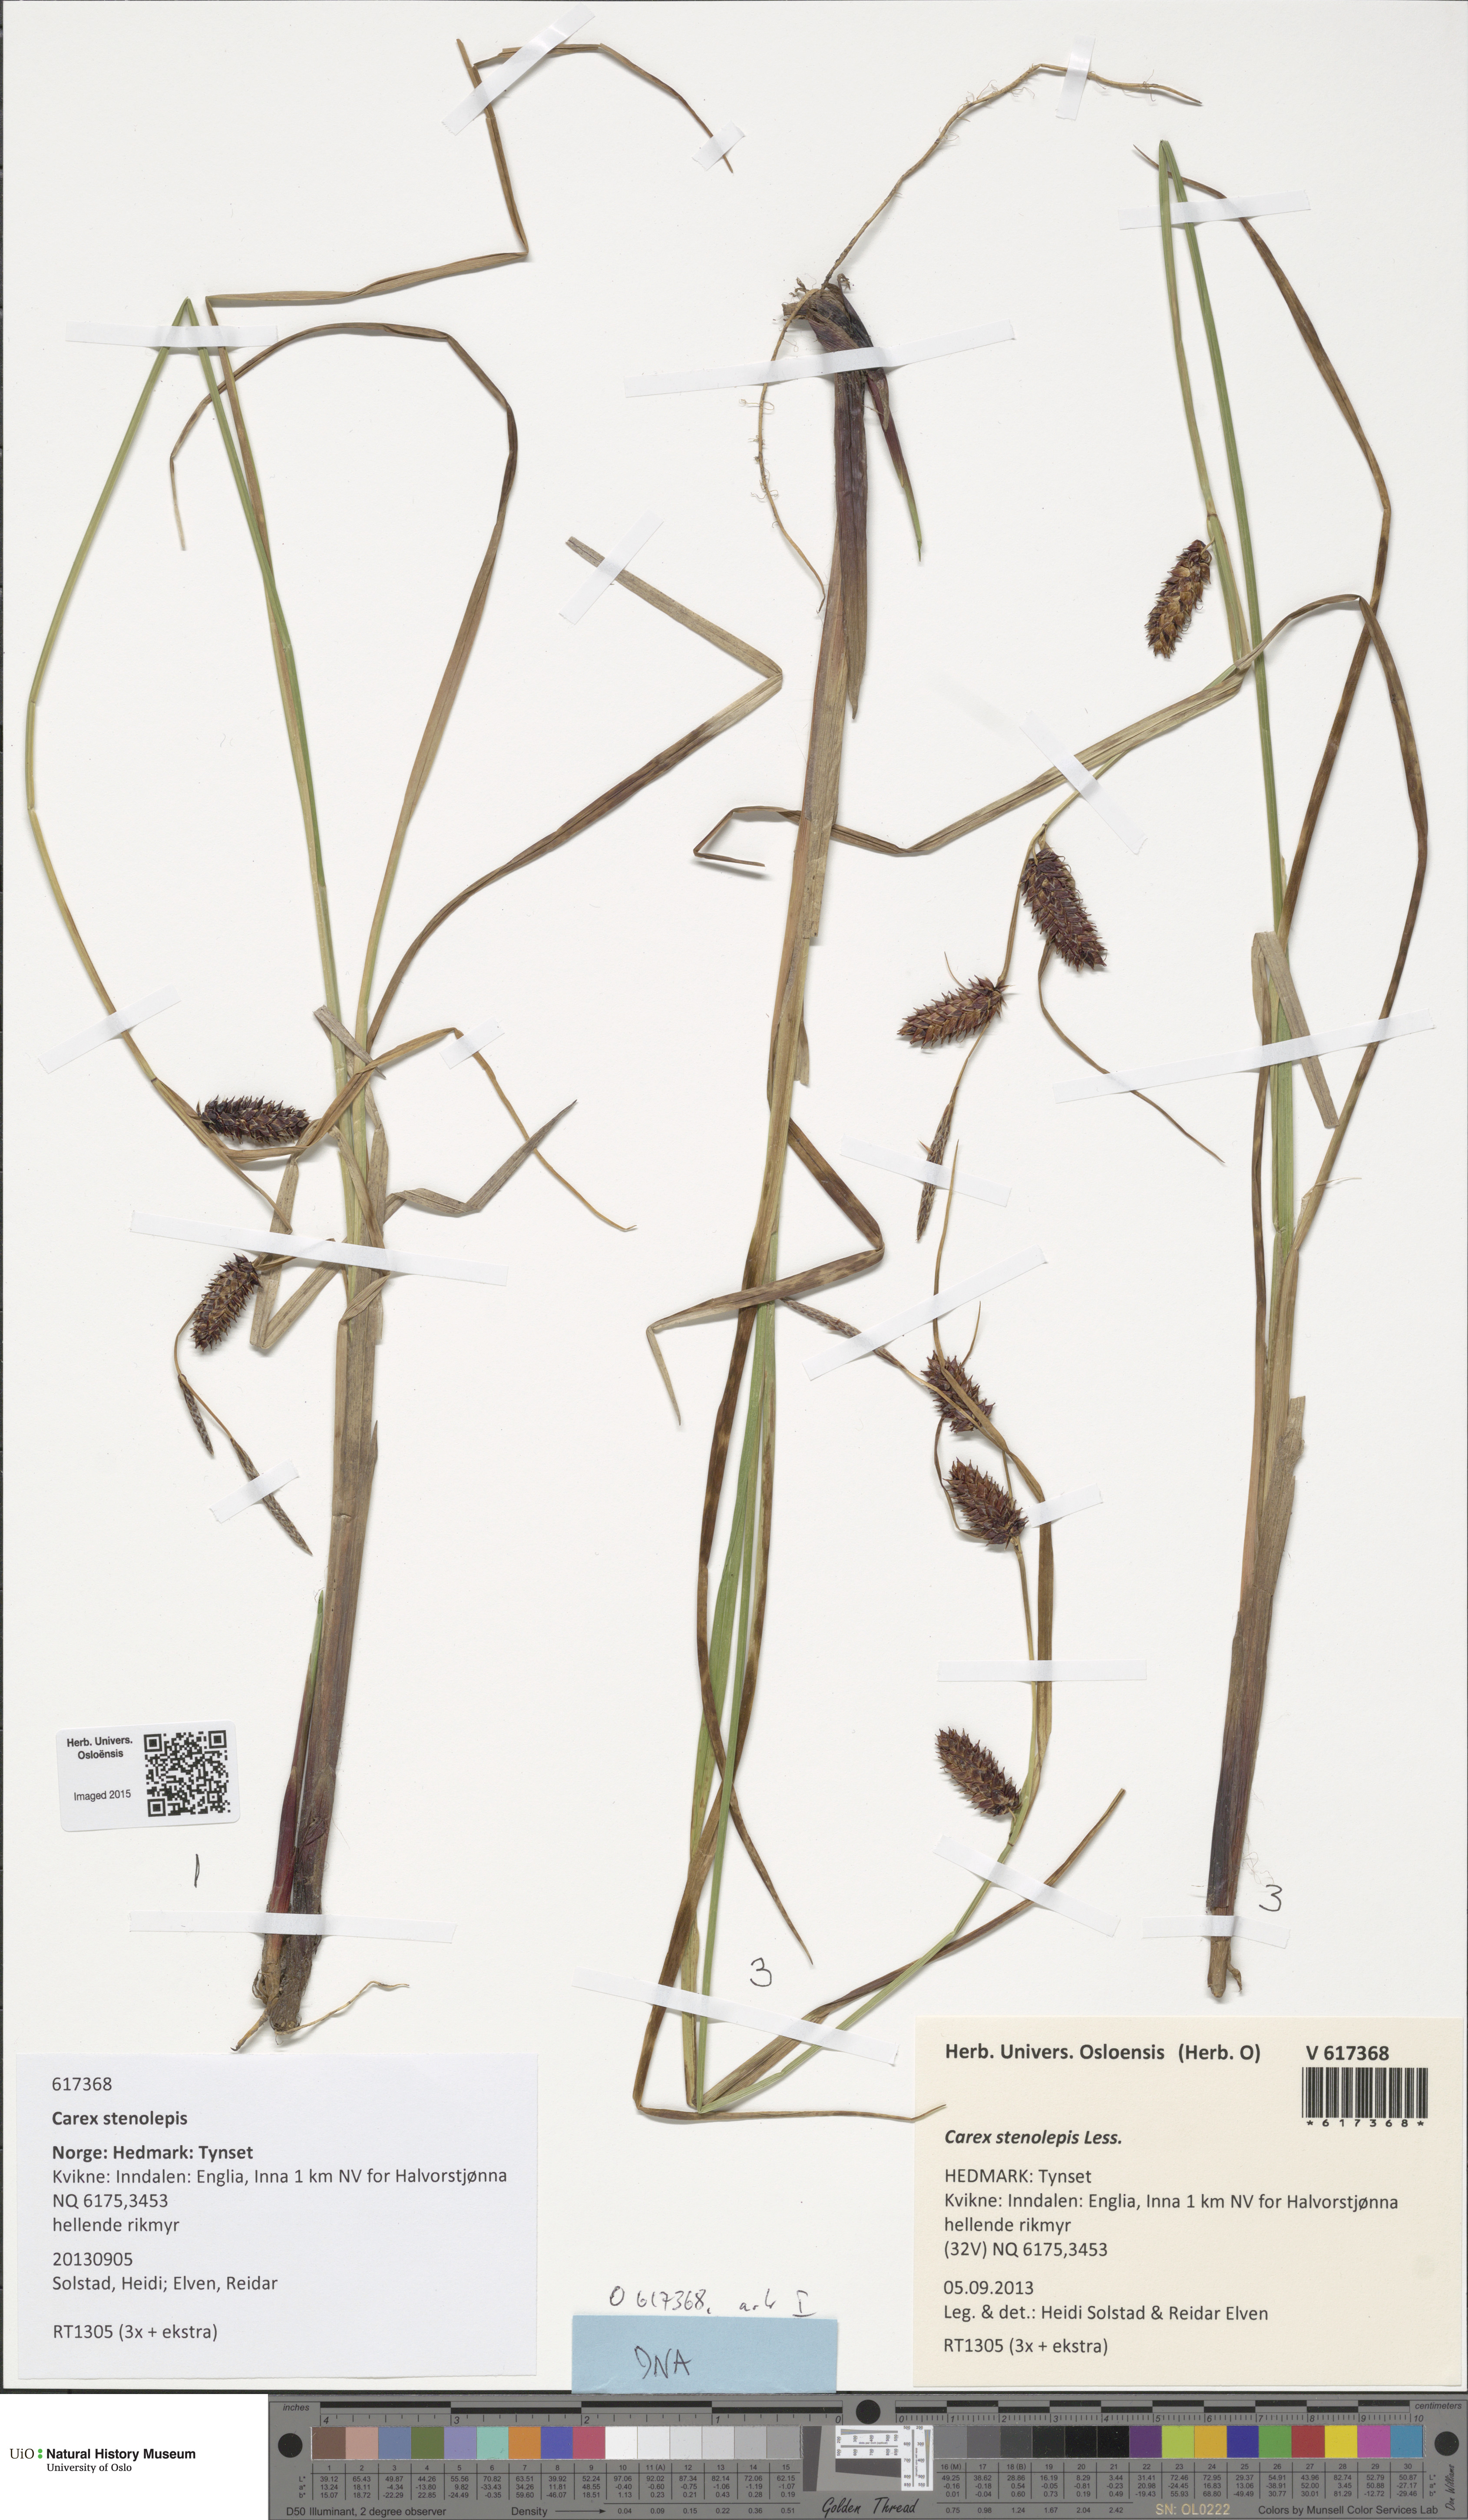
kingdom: Plantae
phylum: Tracheophyta
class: Liliopsida
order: Poales
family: Cyperaceae
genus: Carex
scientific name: Carex grahamii
